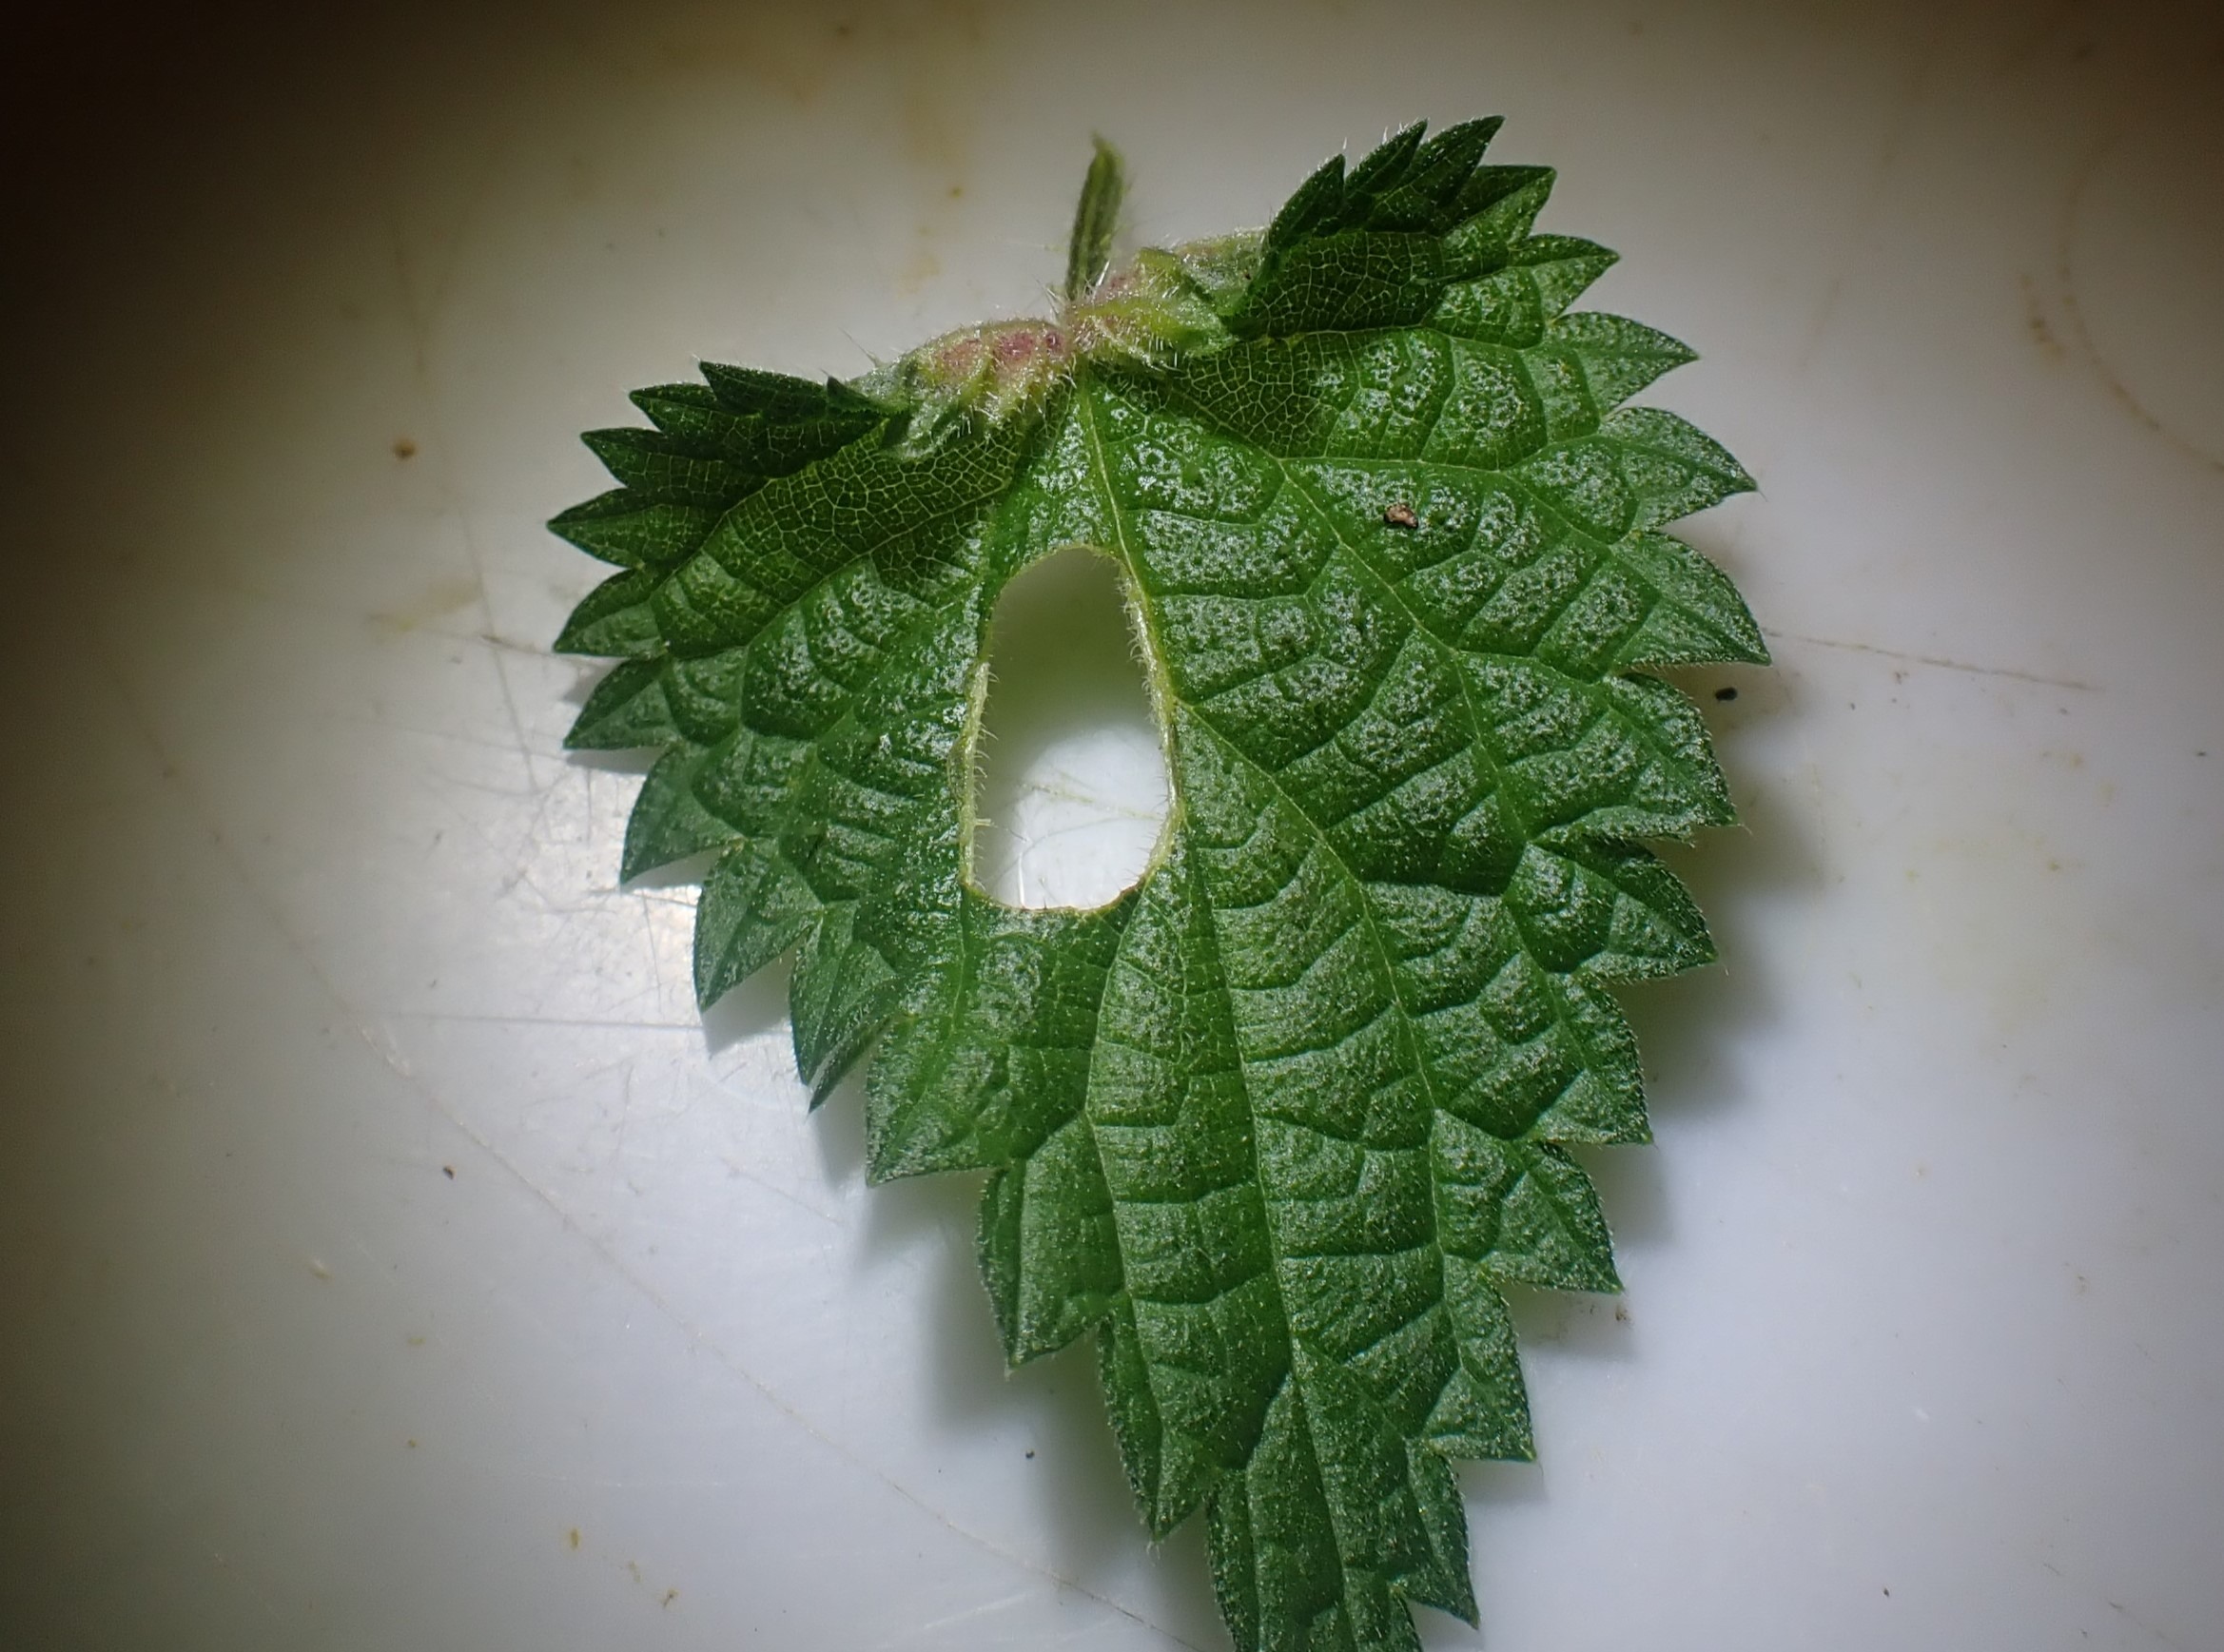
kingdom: Animalia
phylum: Arthropoda
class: Insecta
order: Diptera
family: Cecidomyiidae
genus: Dasineura
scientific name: Dasineura dioicae
